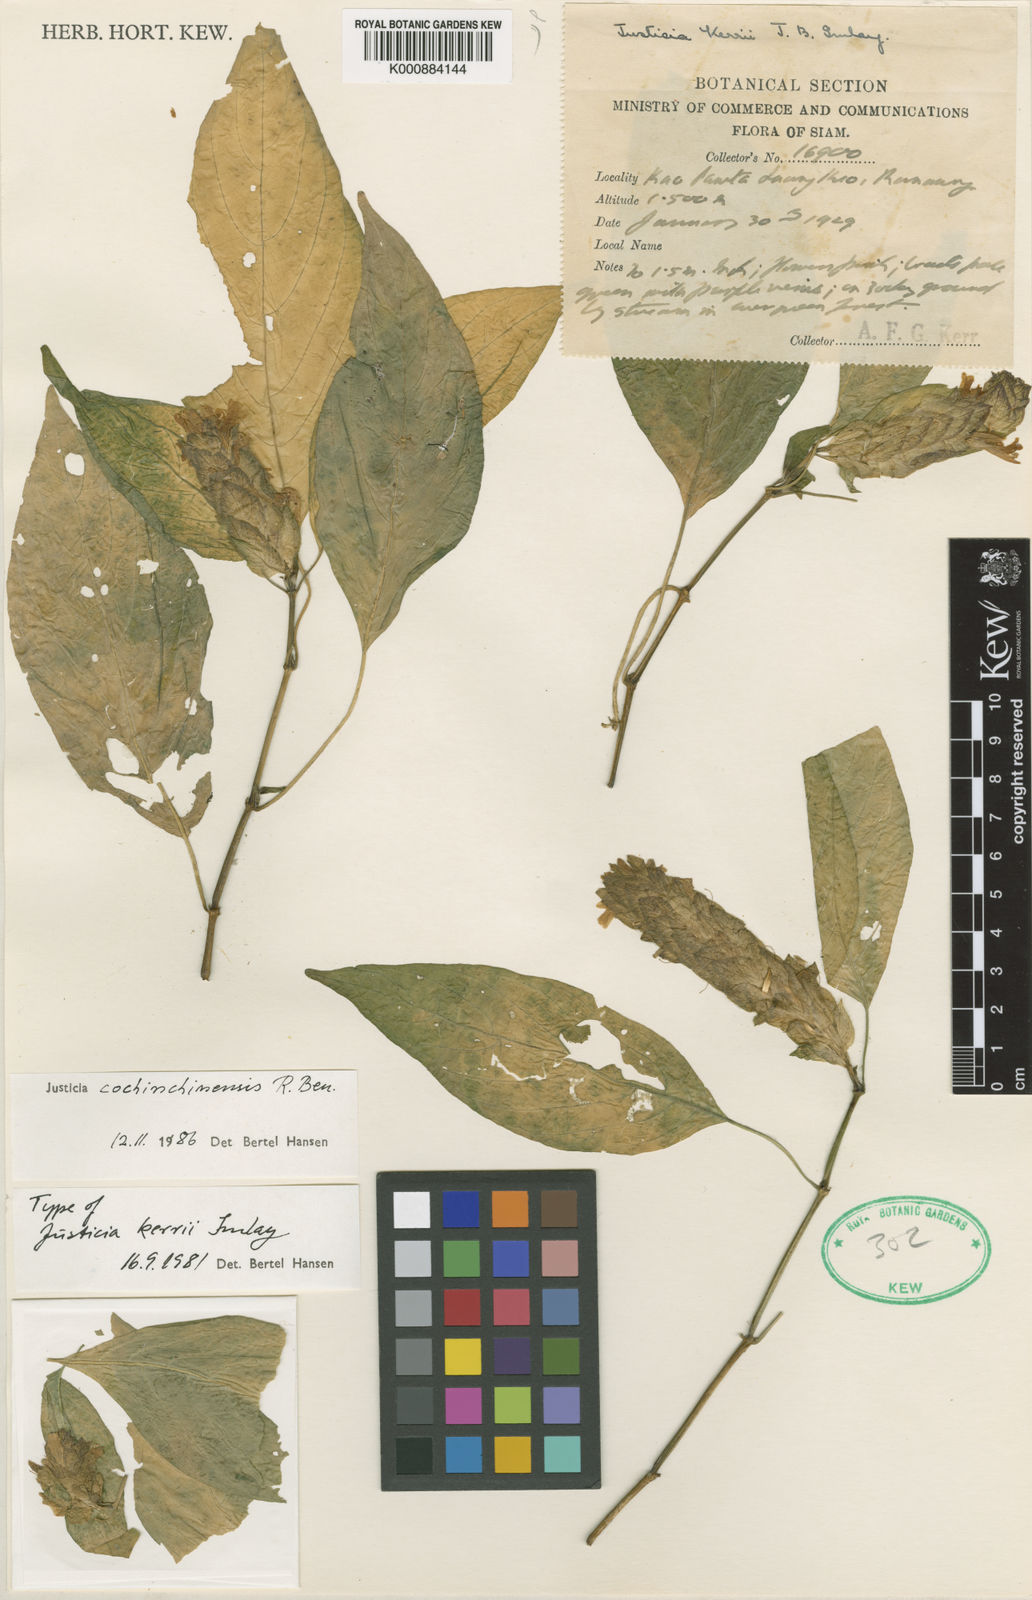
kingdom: Plantae
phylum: Tracheophyta
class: Magnoliopsida
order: Lamiales
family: Acanthaceae
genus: Justicia
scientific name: Justicia cochinchinensis
